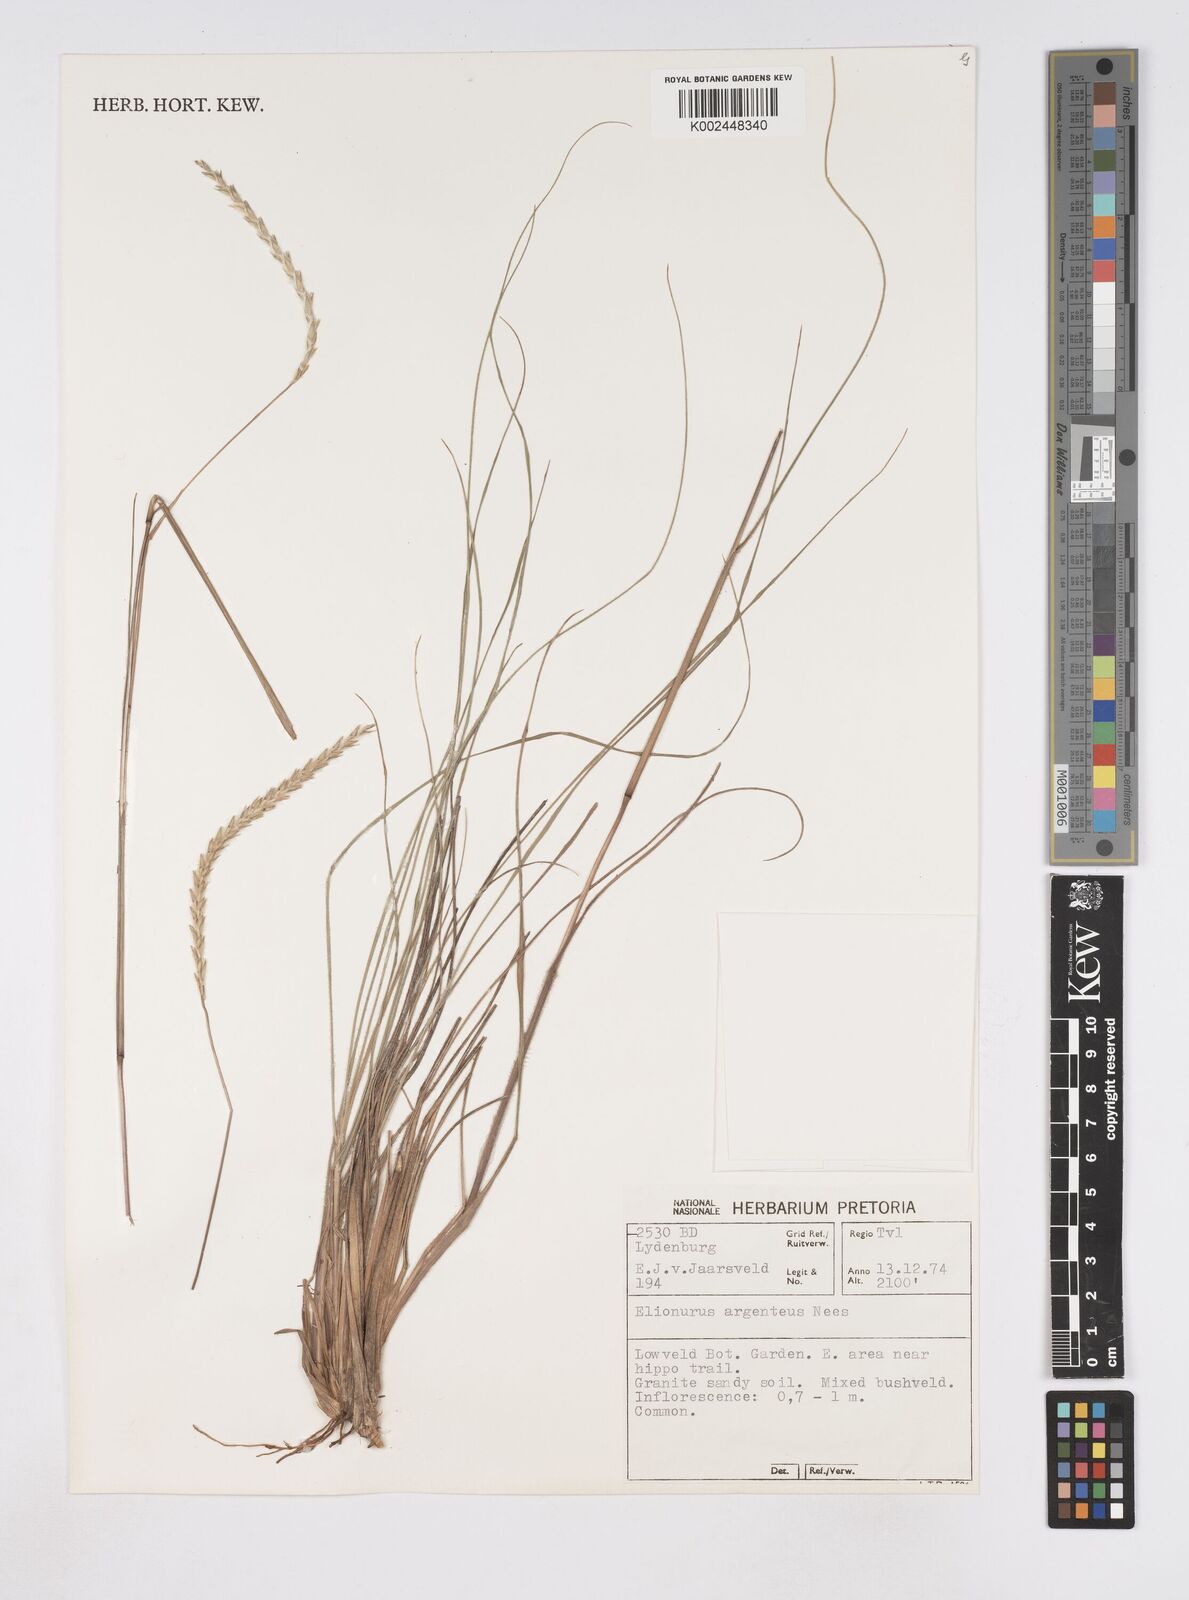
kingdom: Plantae
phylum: Tracheophyta
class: Liliopsida
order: Poales
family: Poaceae
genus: Elionurus
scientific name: Elionurus muticus
